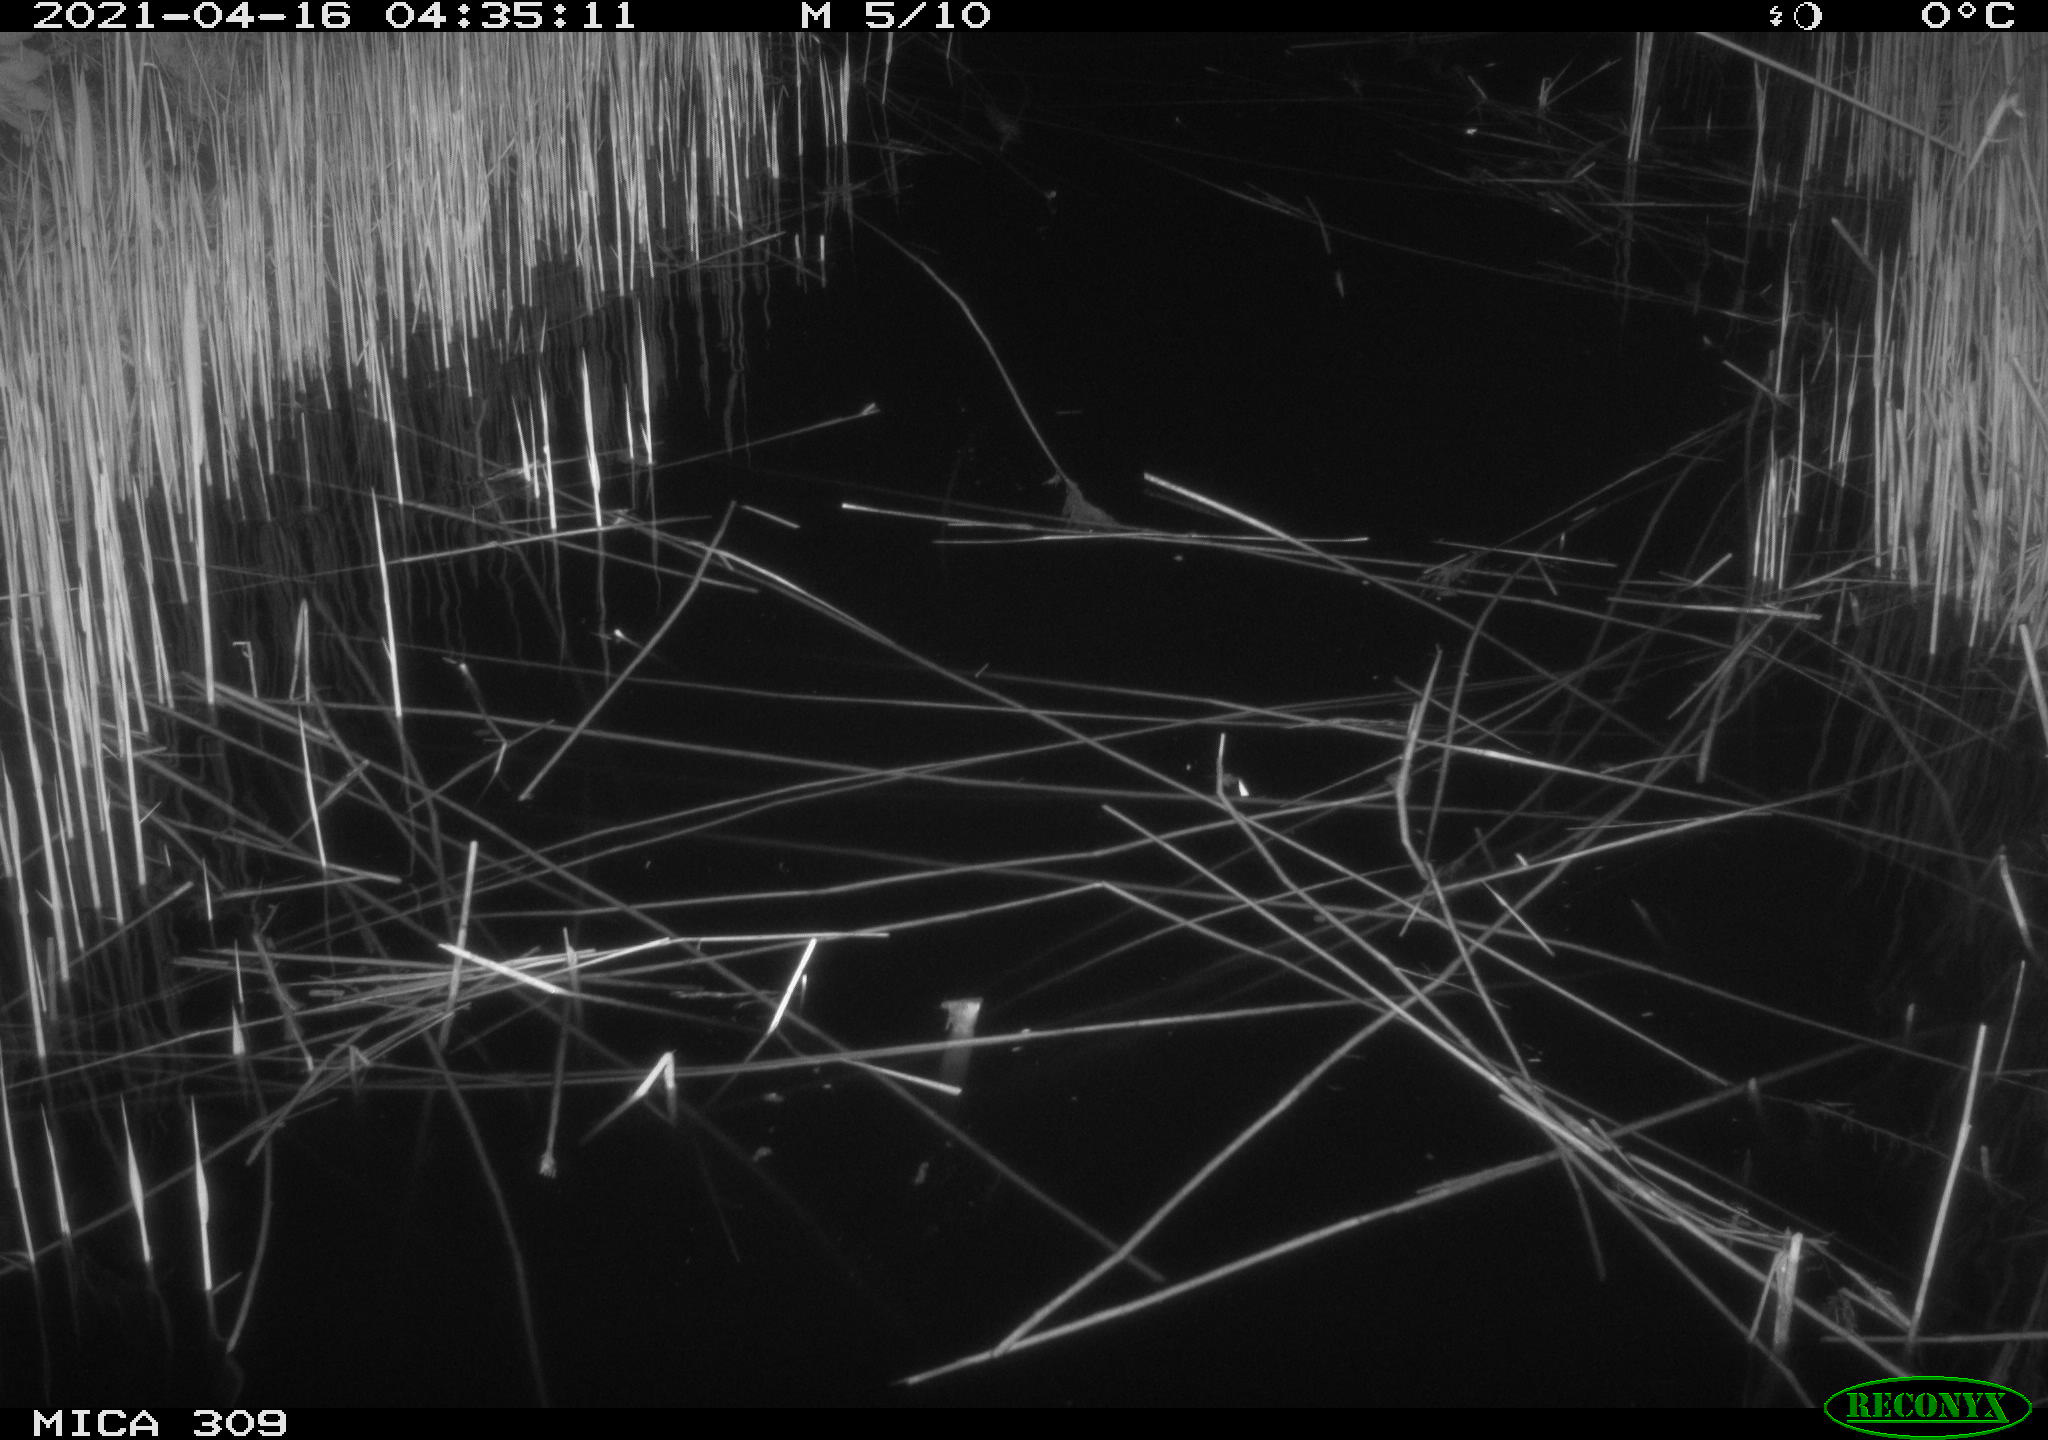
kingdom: Animalia
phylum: Chordata
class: Aves
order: Anseriformes
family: Anatidae
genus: Anas
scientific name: Anas platyrhynchos
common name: Mallard
